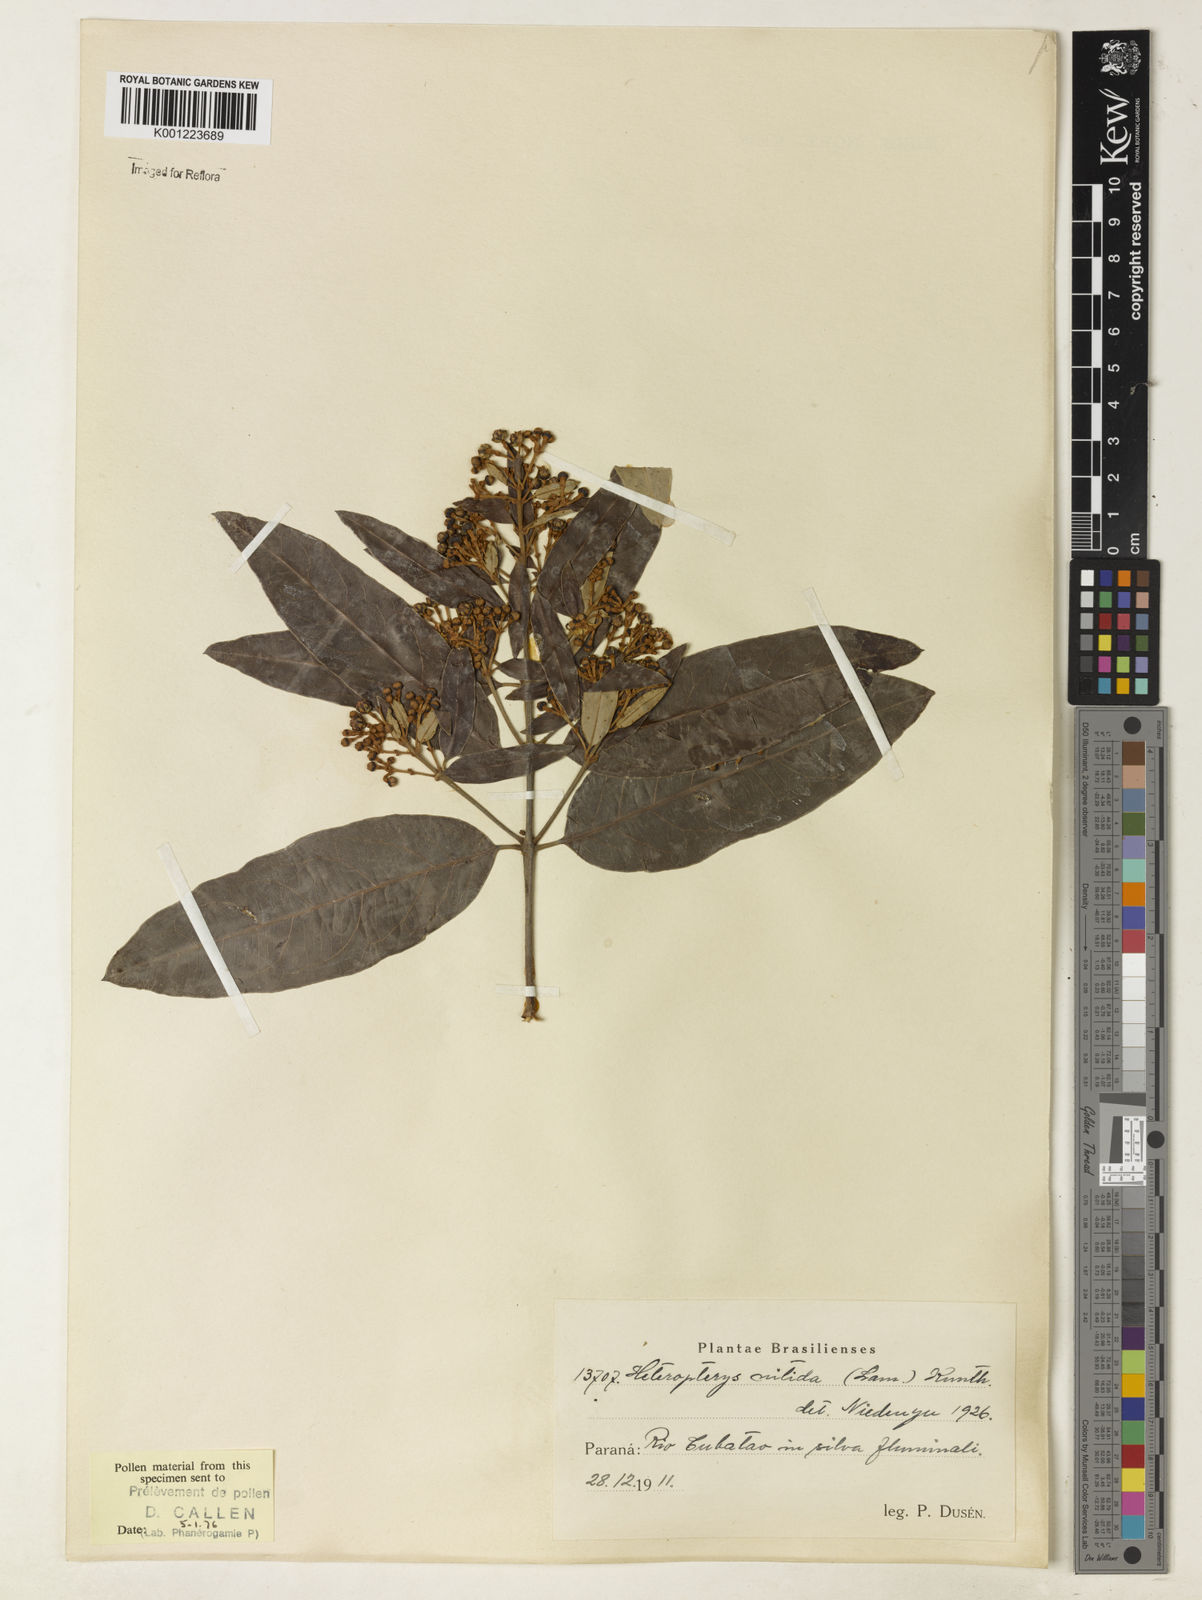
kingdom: Plantae
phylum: Tracheophyta
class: Magnoliopsida
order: Malpighiales
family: Malpighiaceae
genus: Heteropterys
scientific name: Heteropterys nitida
